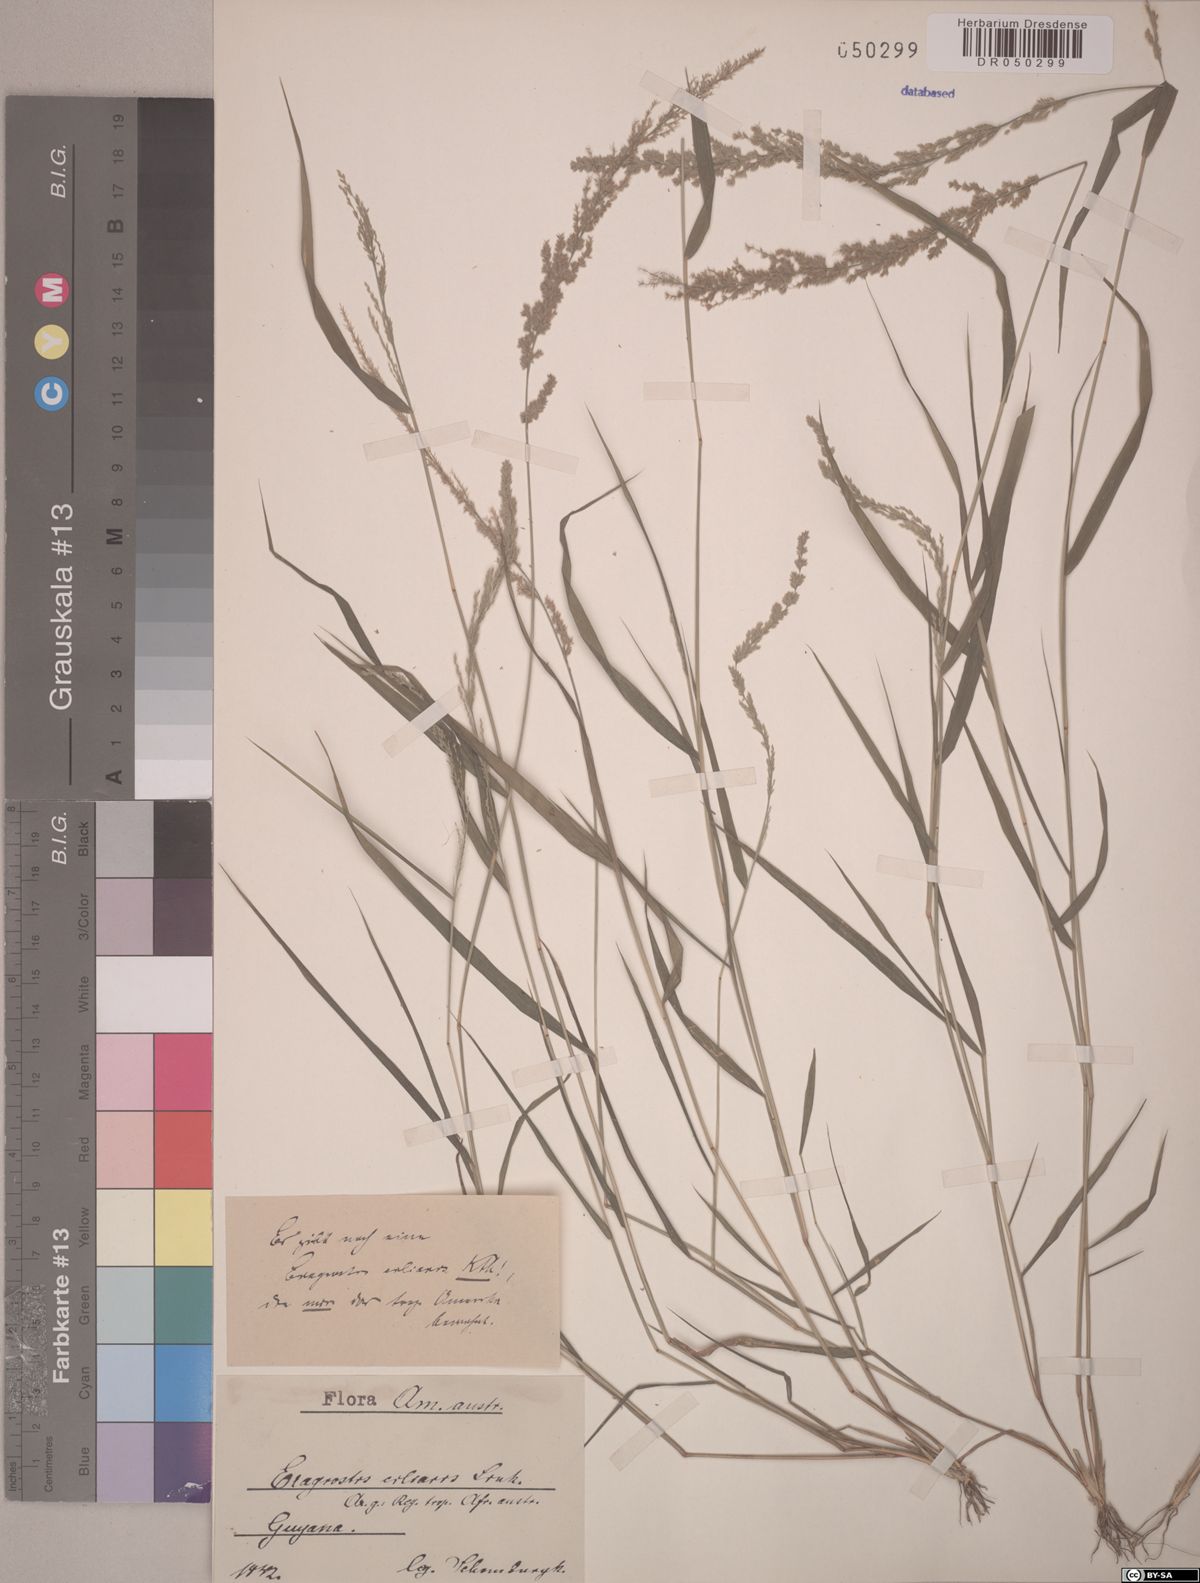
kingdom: Plantae
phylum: Tracheophyta
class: Liliopsida
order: Poales
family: Poaceae
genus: Eragrostis
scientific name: Eragrostis ciliaris
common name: Gophertail lovegrass
